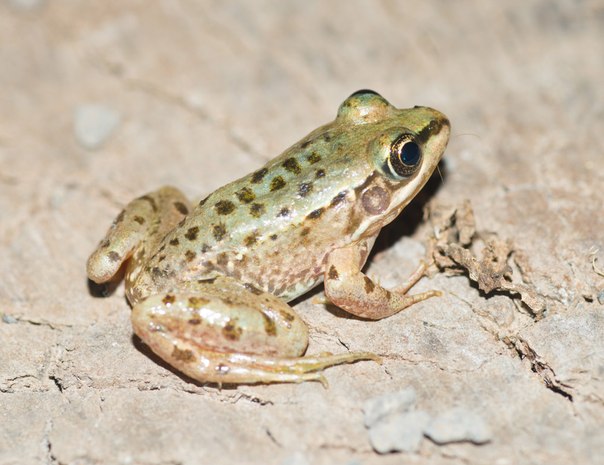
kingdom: Animalia
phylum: Chordata
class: Amphibia
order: Anura
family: Ranidae
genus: Pelophylax
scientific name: Pelophylax bedriagae
